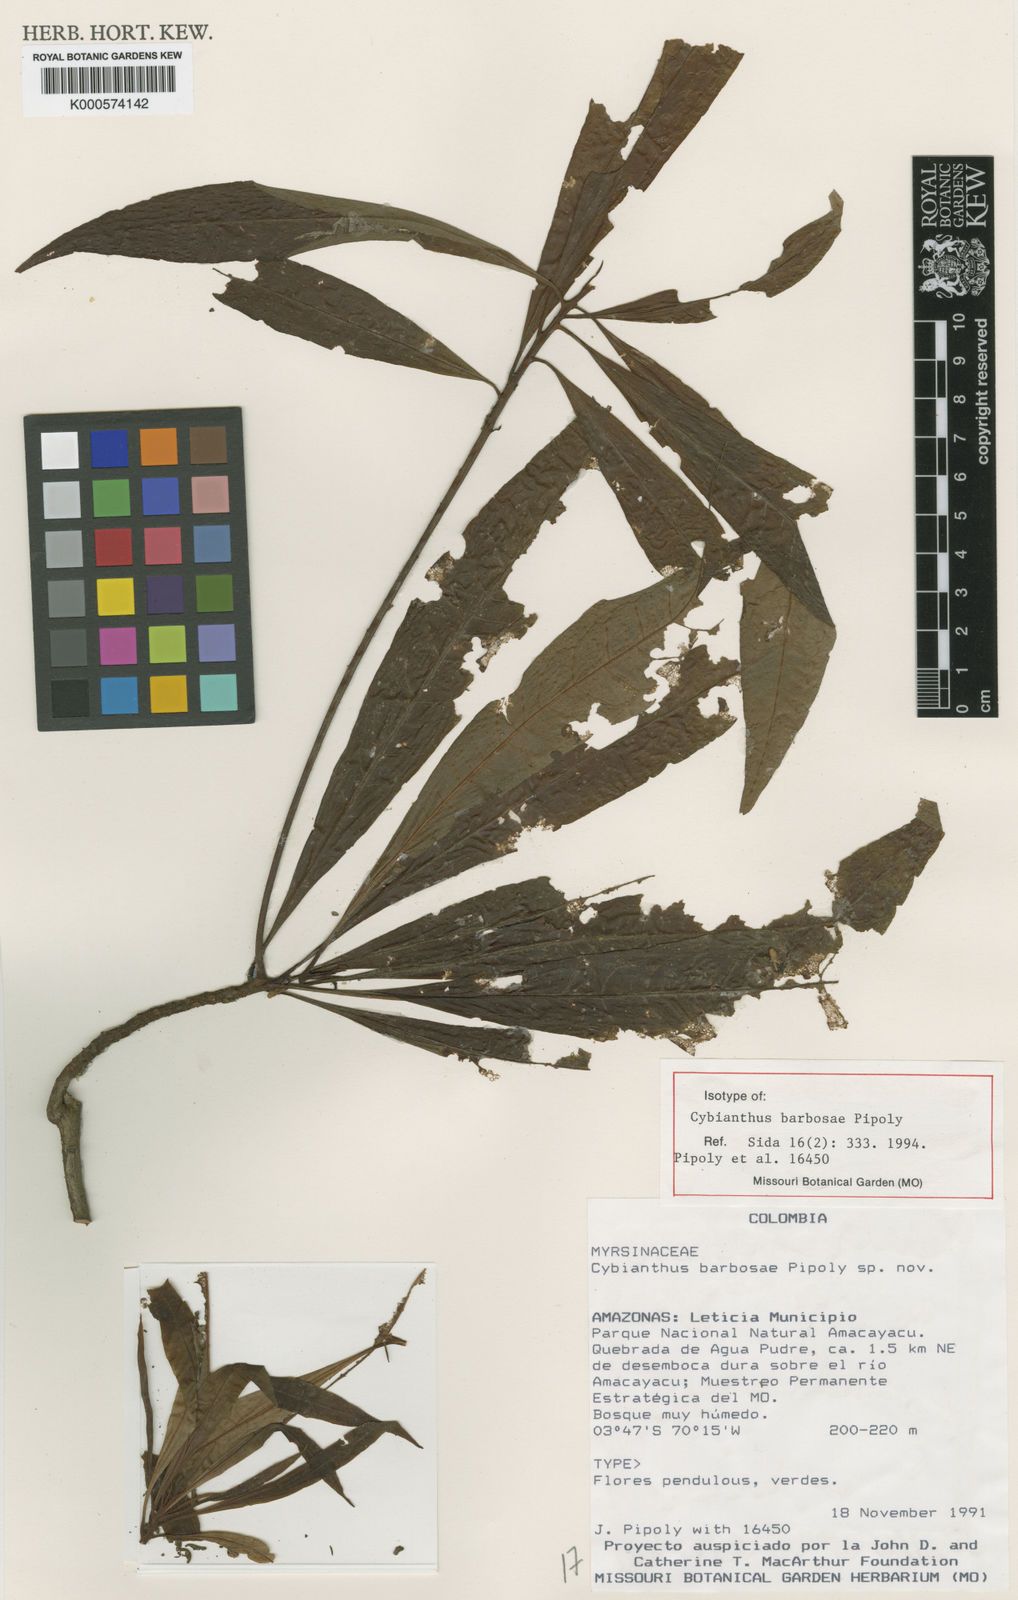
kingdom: Plantae
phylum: Tracheophyta
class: Magnoliopsida
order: Ericales
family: Primulaceae
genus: Cybianthus
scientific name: Cybianthus barbosae
